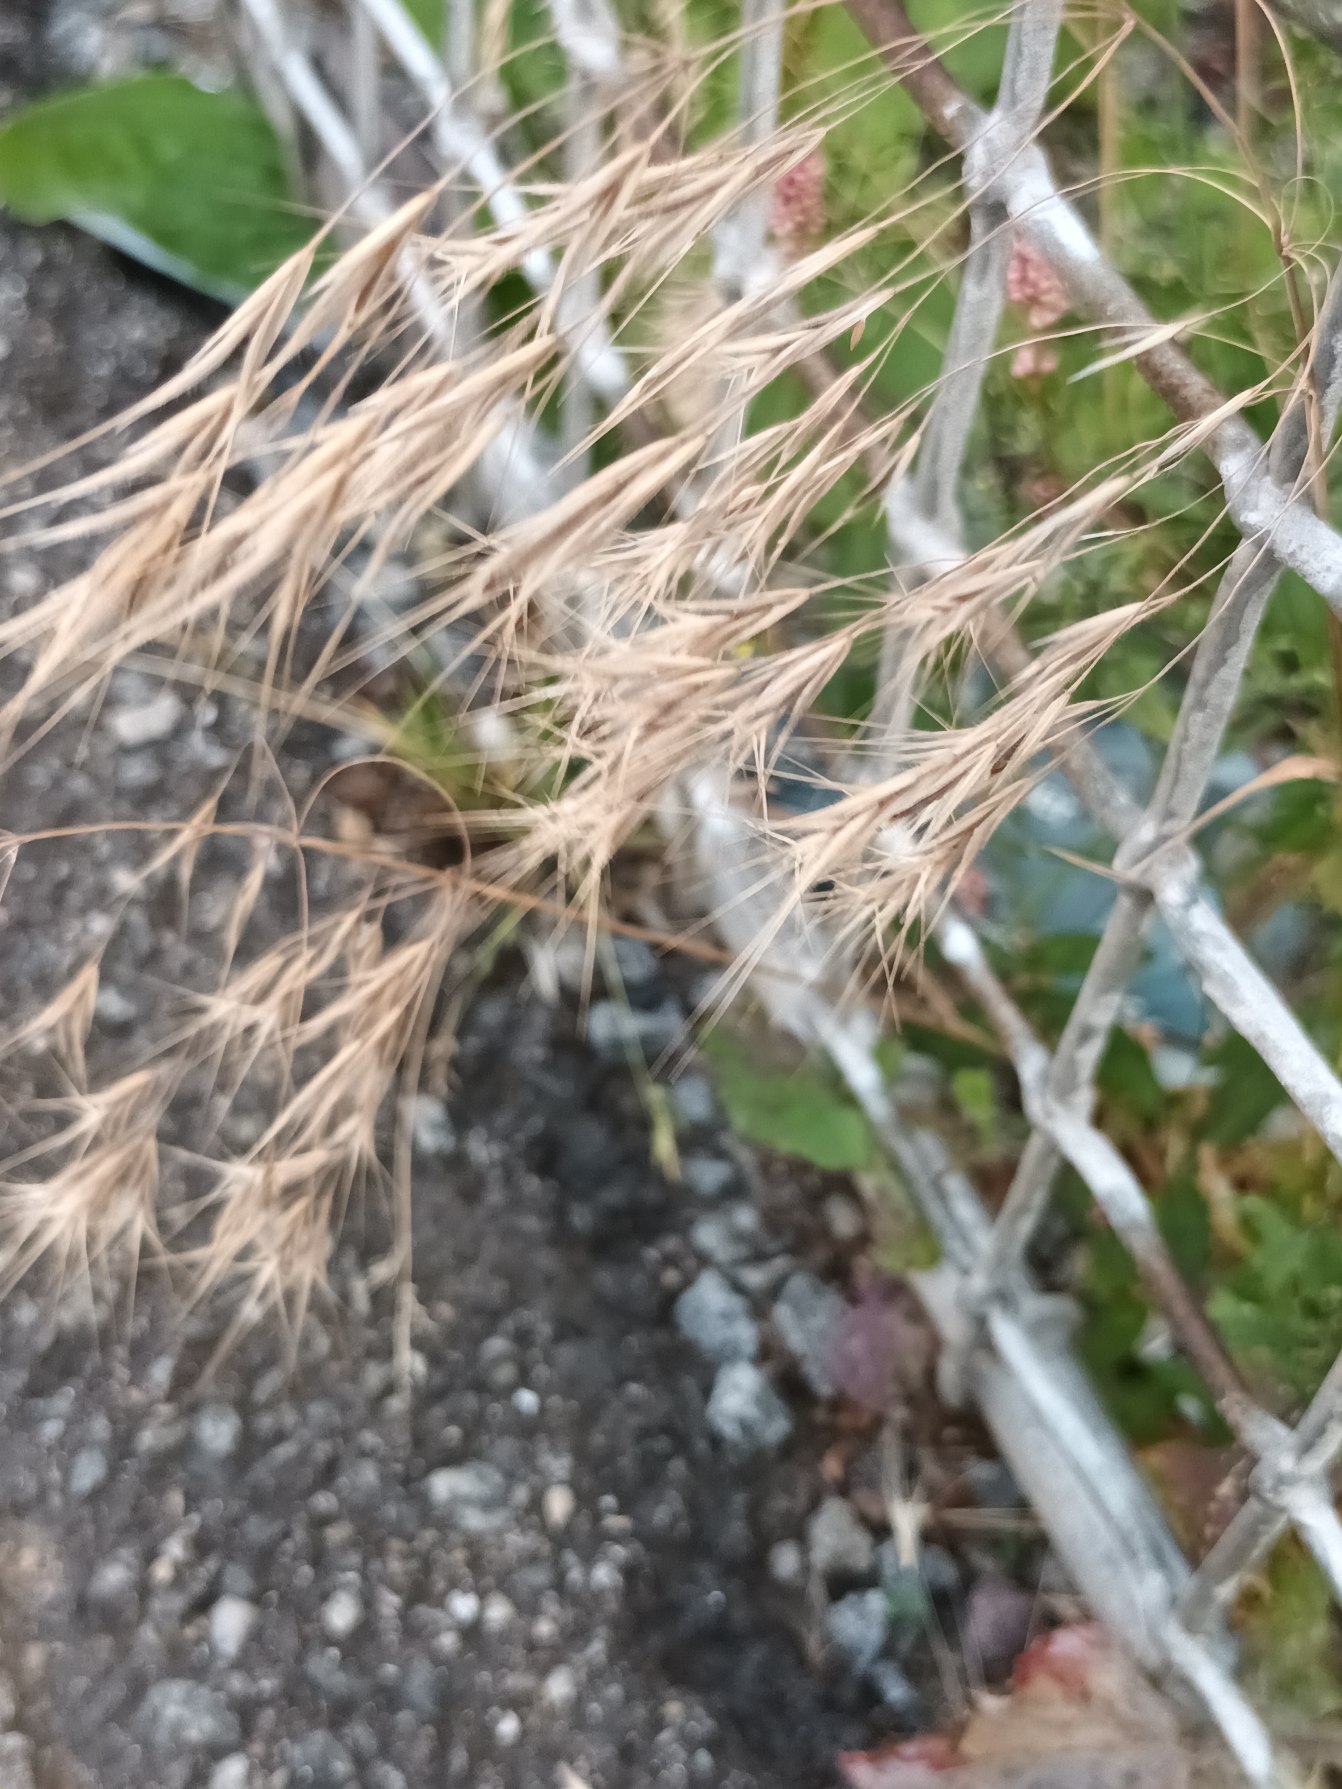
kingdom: Plantae
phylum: Tracheophyta
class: Liliopsida
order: Poales
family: Poaceae
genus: Bromus
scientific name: Bromus tectorum
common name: Tag-hejre
